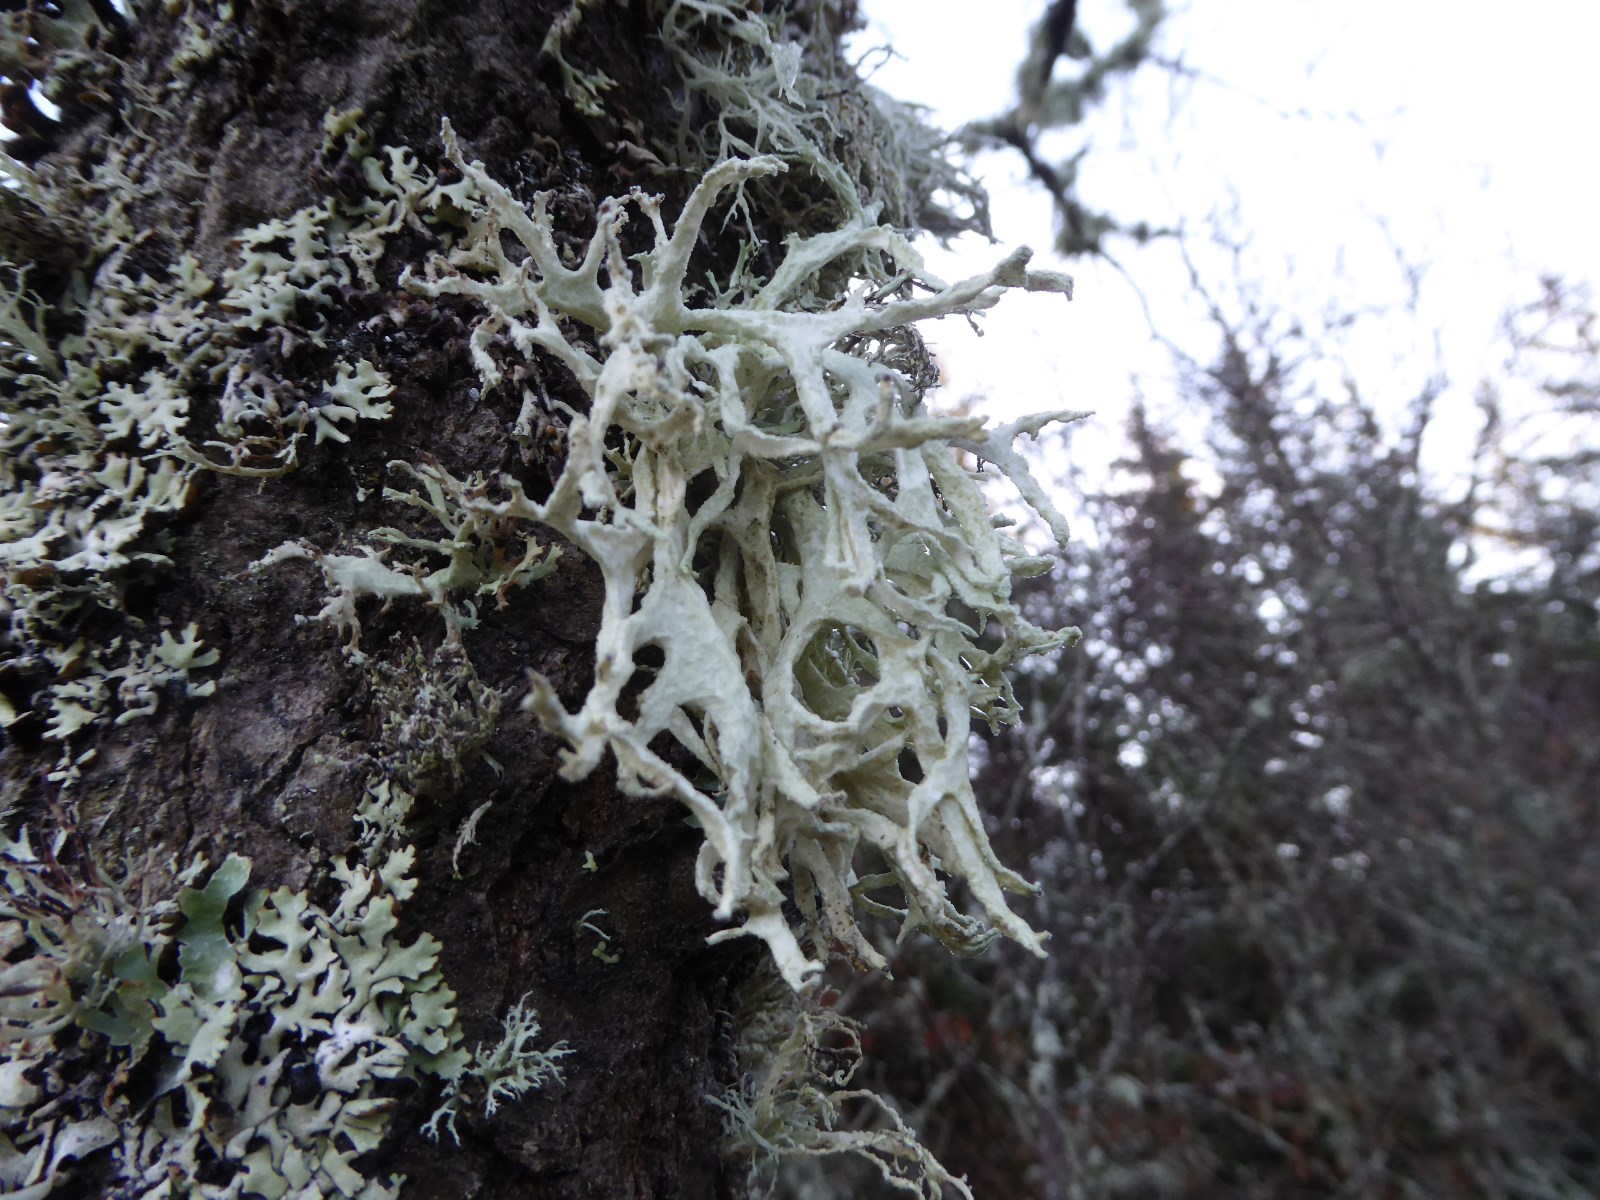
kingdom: Fungi
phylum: Ascomycota
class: Lecanoromycetes
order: Lecanorales
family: Parmeliaceae
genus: Evernia
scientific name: Evernia prunastri
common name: almindelig slåenlav
